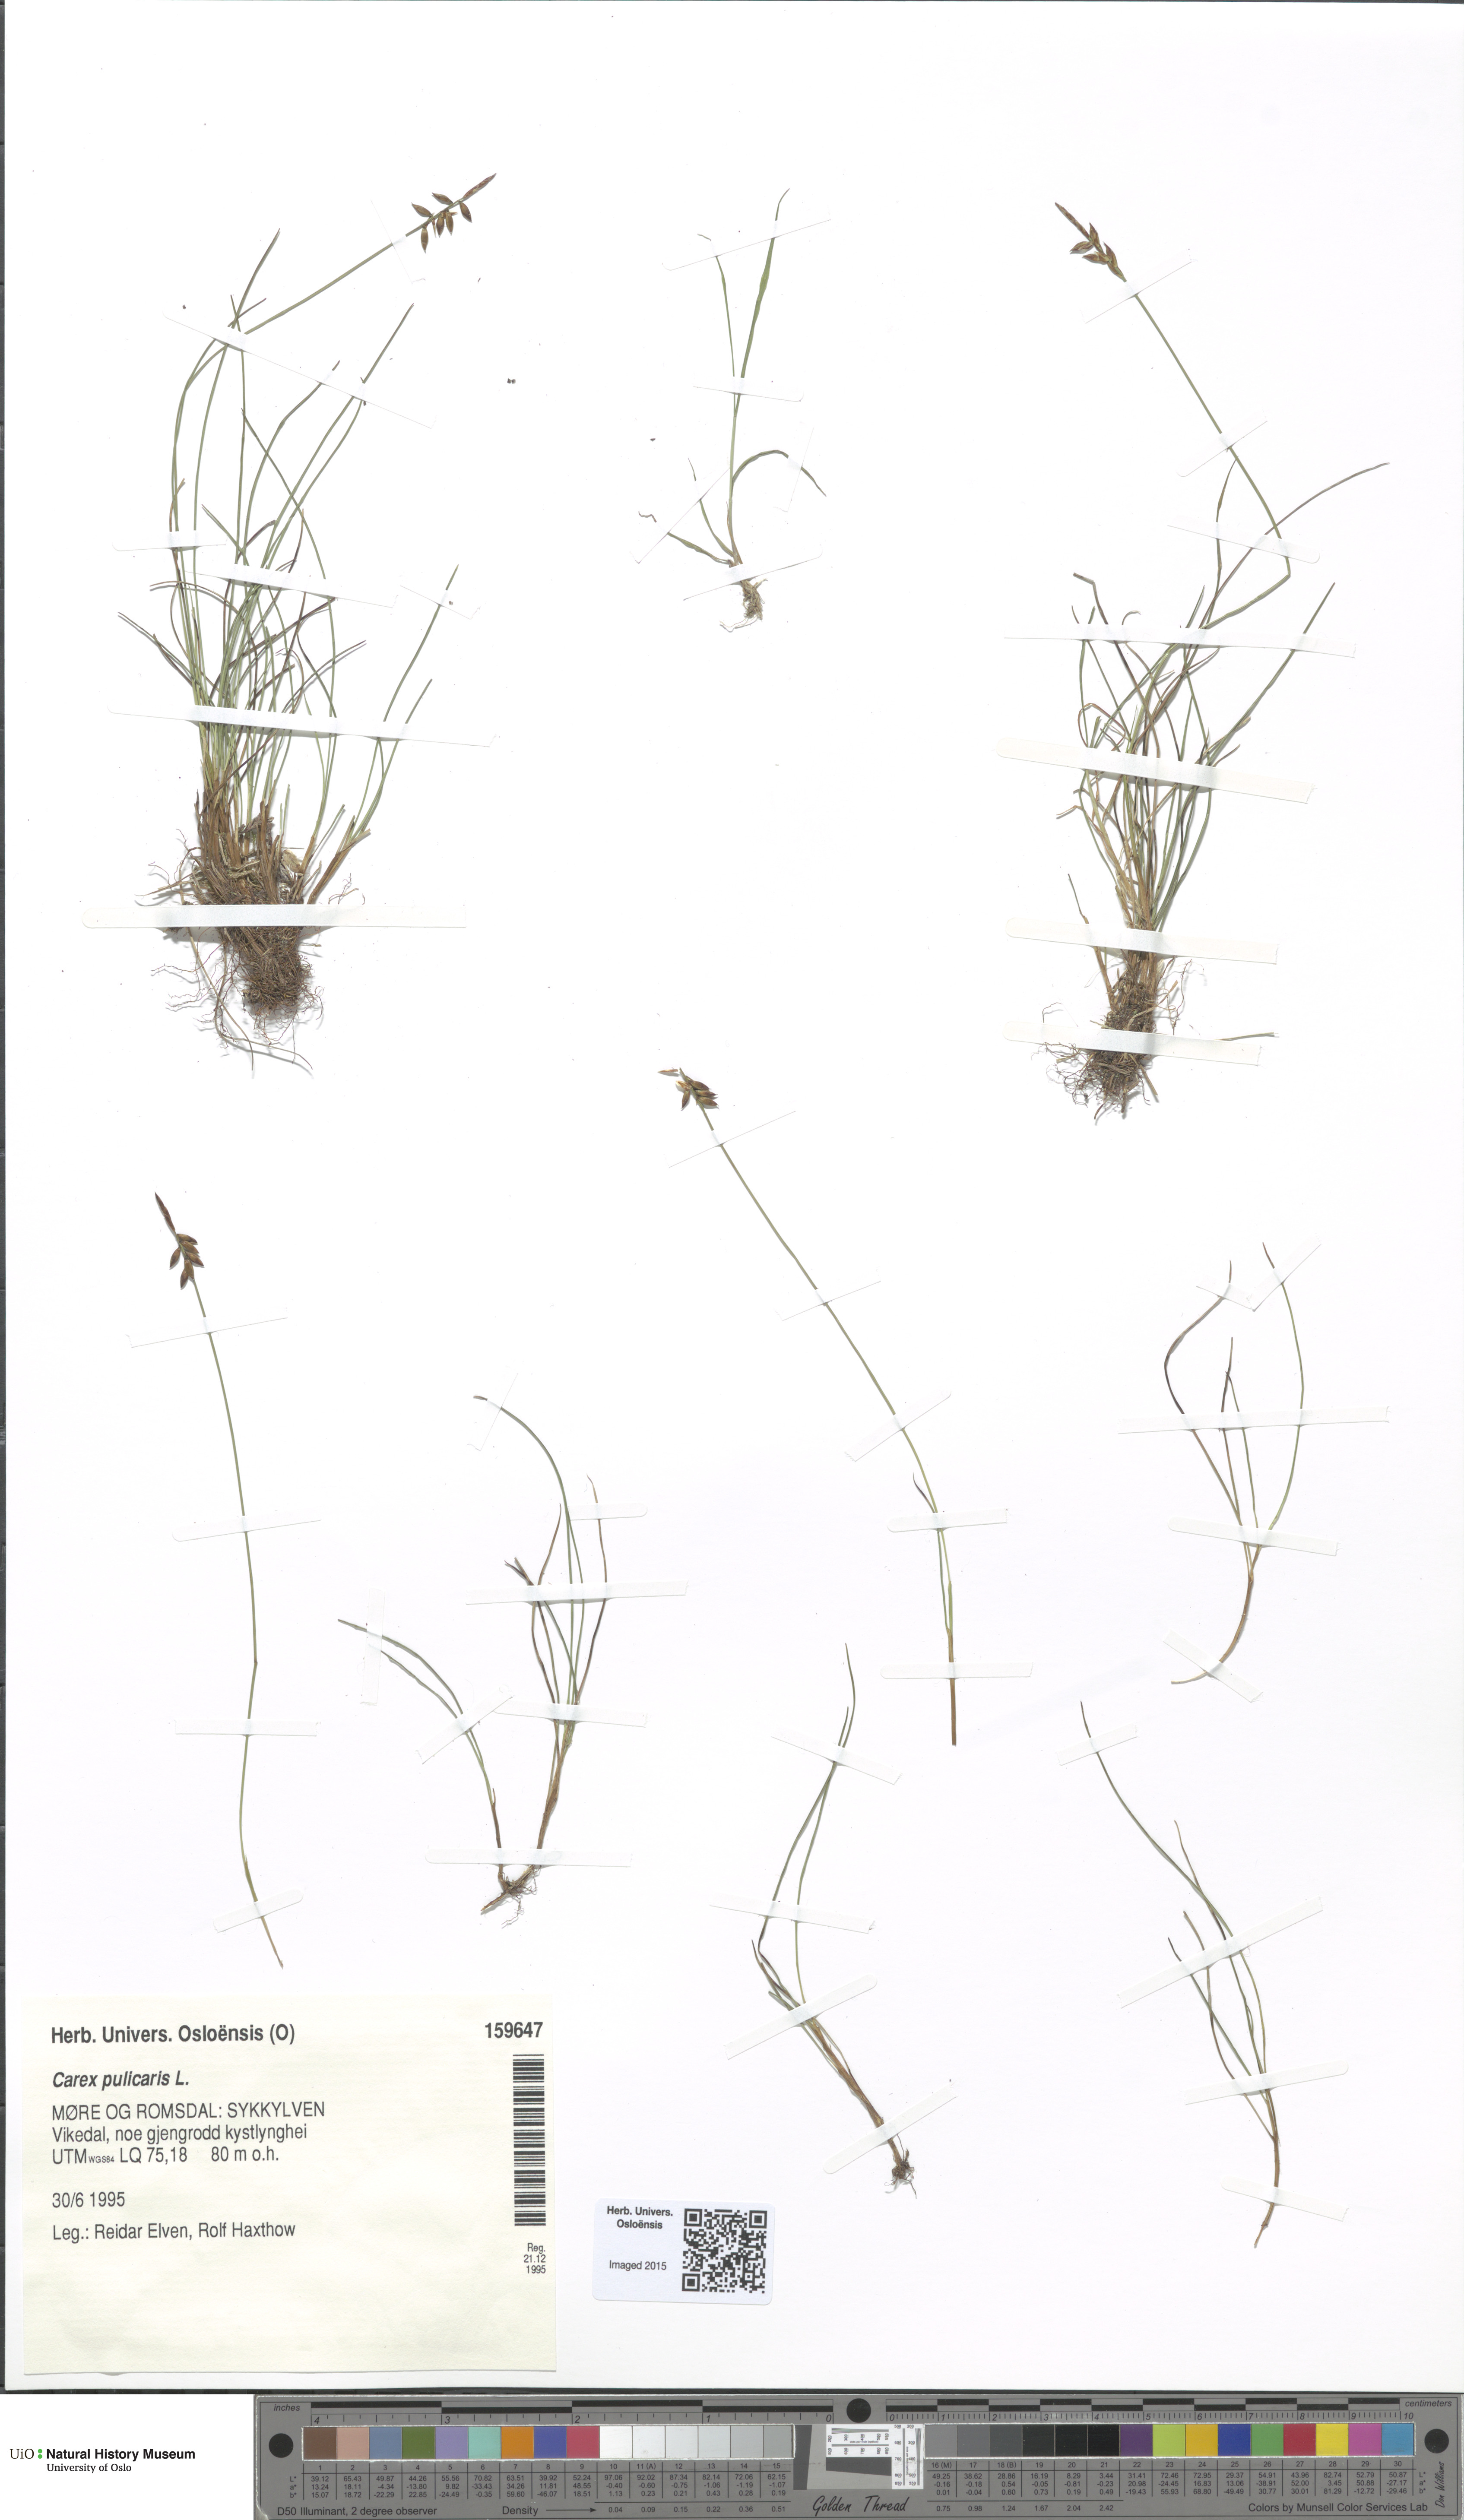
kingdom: Plantae
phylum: Tracheophyta
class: Liliopsida
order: Poales
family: Cyperaceae
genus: Carex
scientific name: Carex pulicaris
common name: Flea sedge
